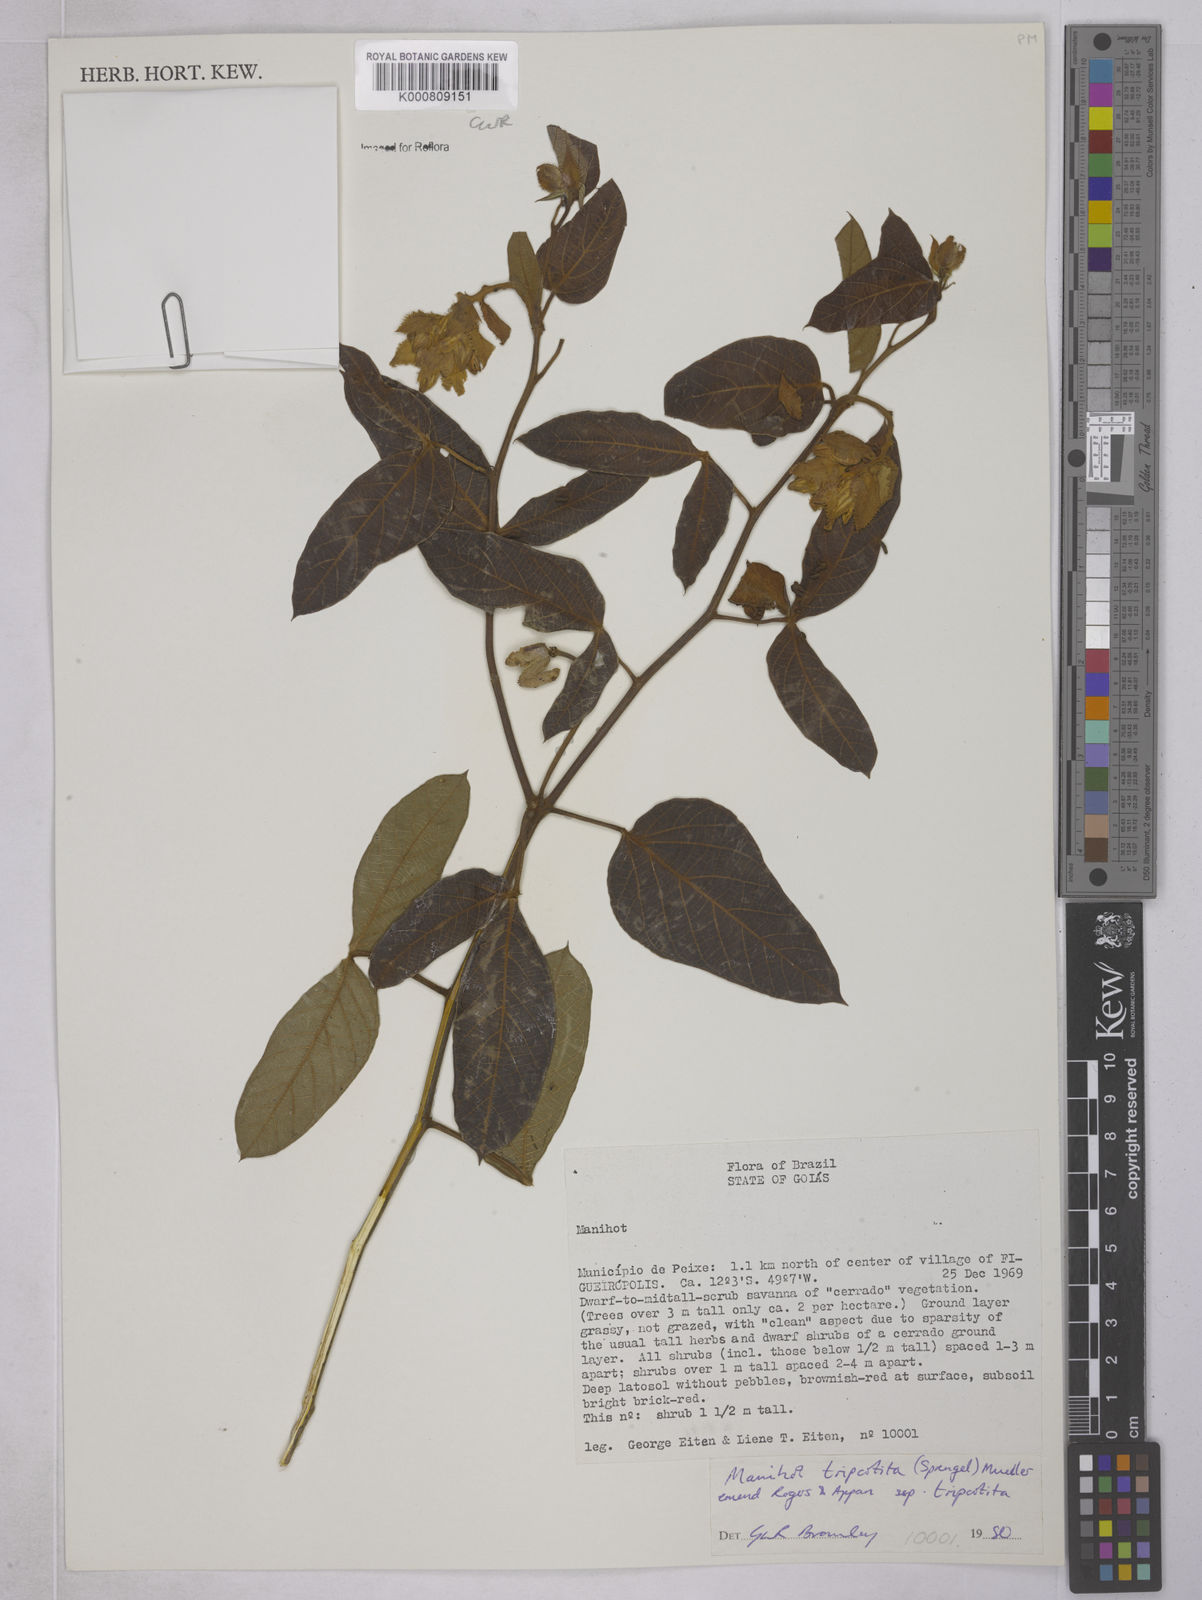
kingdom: Plantae
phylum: Tracheophyta
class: Magnoliopsida
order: Malpighiales
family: Euphorbiaceae
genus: Manihot
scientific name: Manihot tripartita
